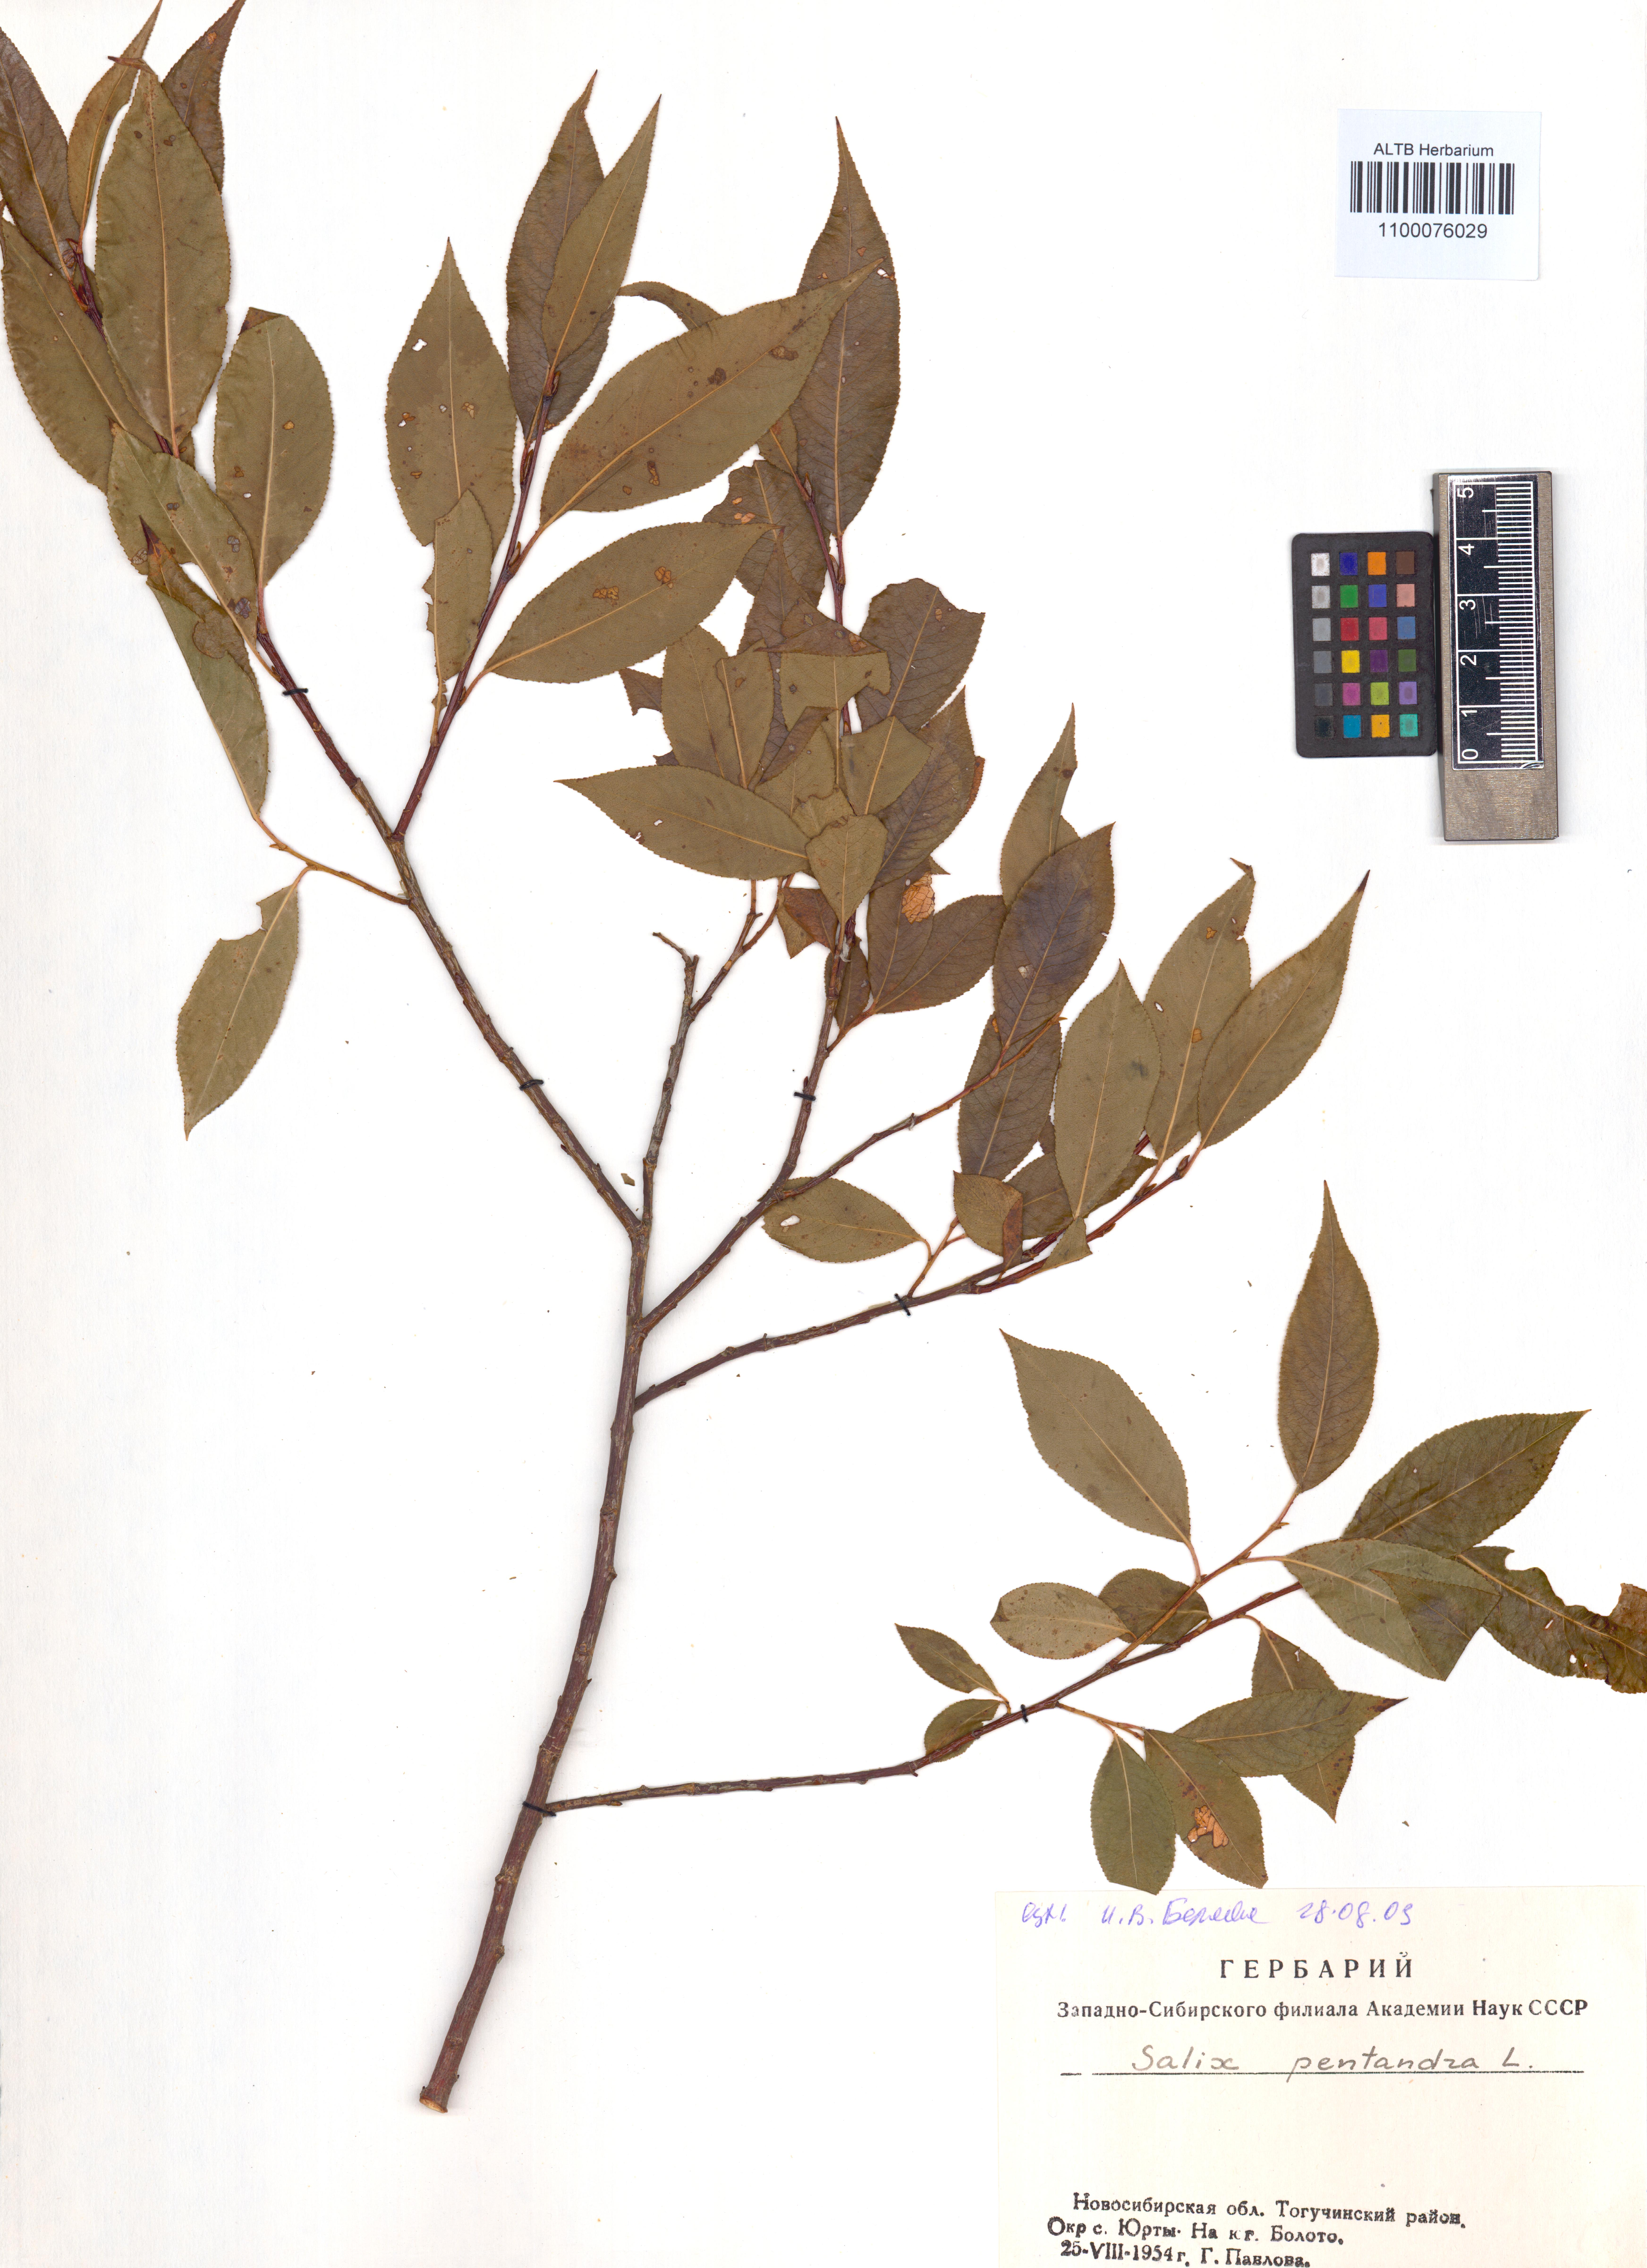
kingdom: Plantae
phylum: Tracheophyta
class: Magnoliopsida
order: Malpighiales
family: Salicaceae
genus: Salix
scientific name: Salix pentandra
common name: Bay willow
